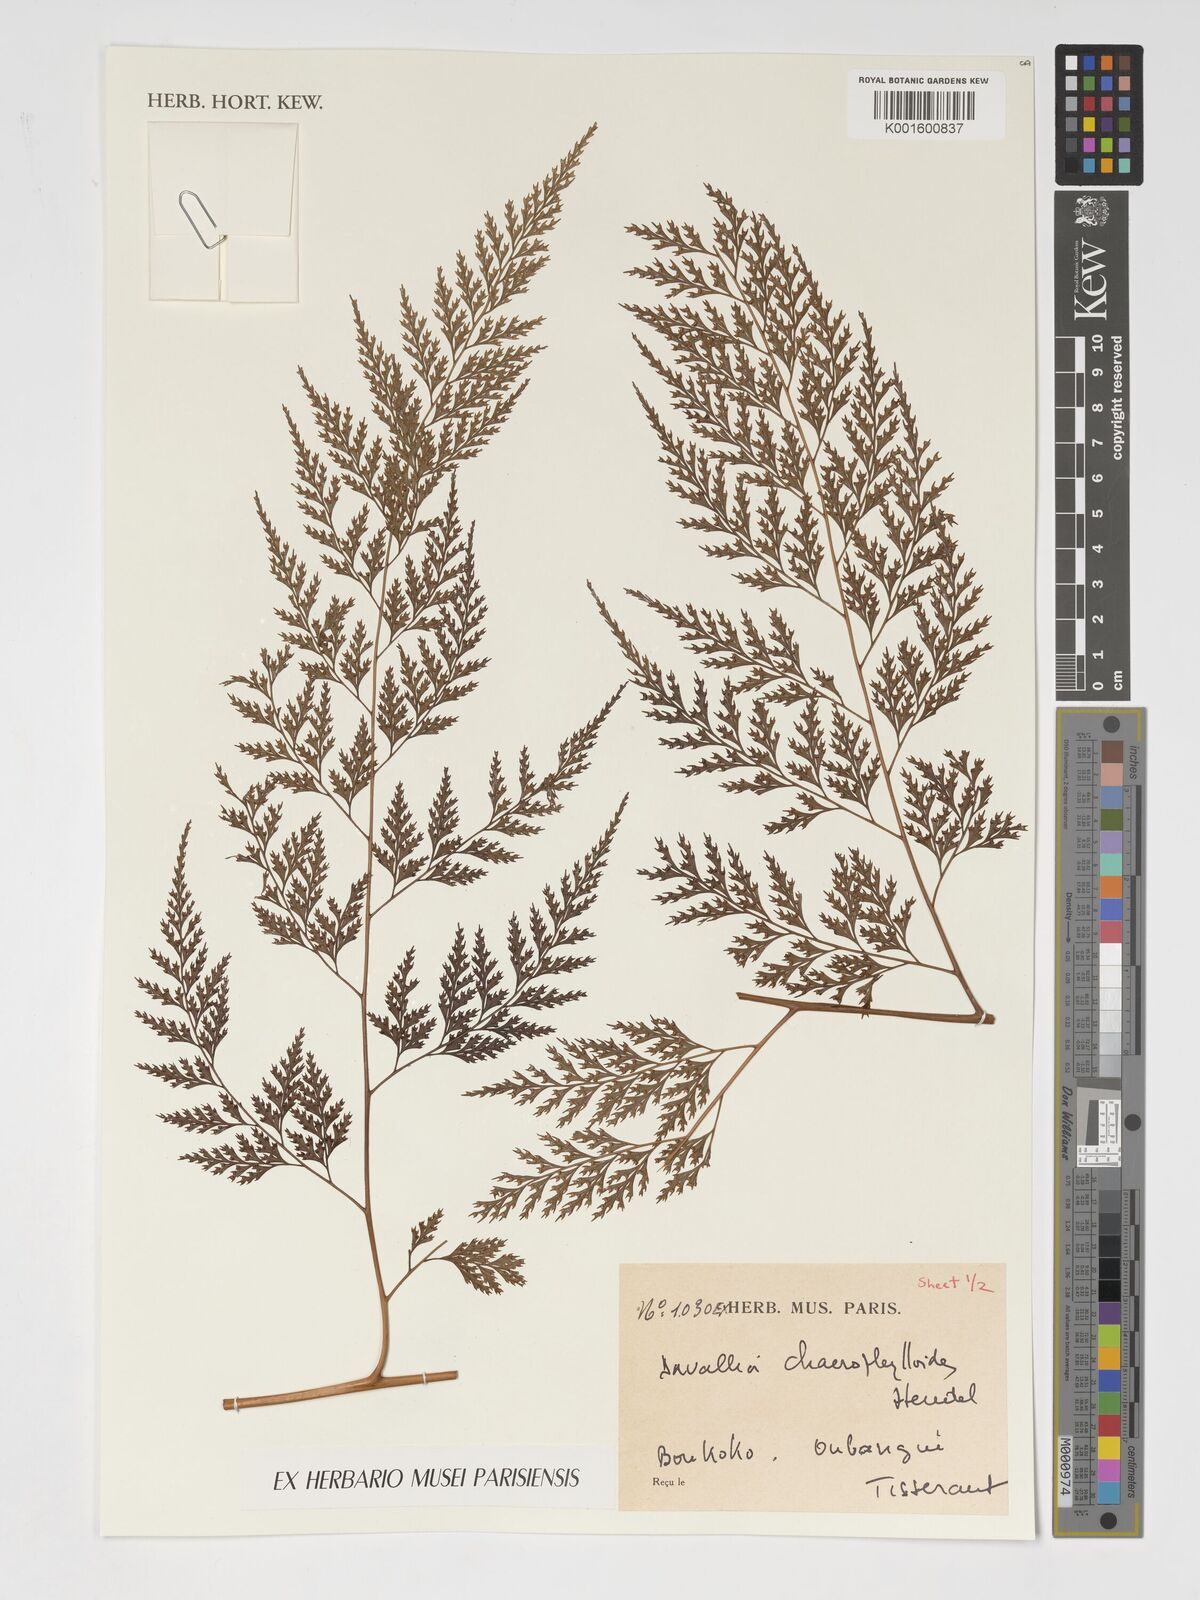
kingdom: Plantae
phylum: Tracheophyta
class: Polypodiopsida
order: Polypodiales
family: Davalliaceae
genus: Davallia
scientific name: Davallia chaerophylloides
